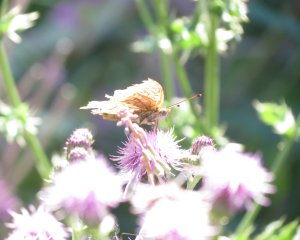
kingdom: Animalia
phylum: Arthropoda
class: Insecta
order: Lepidoptera
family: Nymphalidae
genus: Speyeria
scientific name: Speyeria atlantis
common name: Atlantis Fritillary
